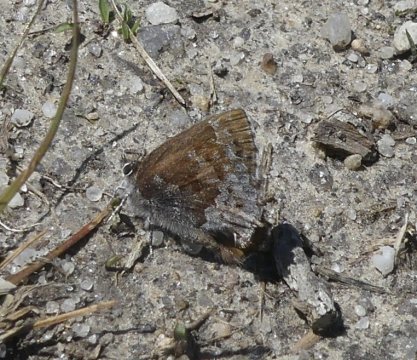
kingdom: Animalia
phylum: Arthropoda
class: Insecta
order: Lepidoptera
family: Lycaenidae
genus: Thecla
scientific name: Thecla irus
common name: Frosted Elfin
